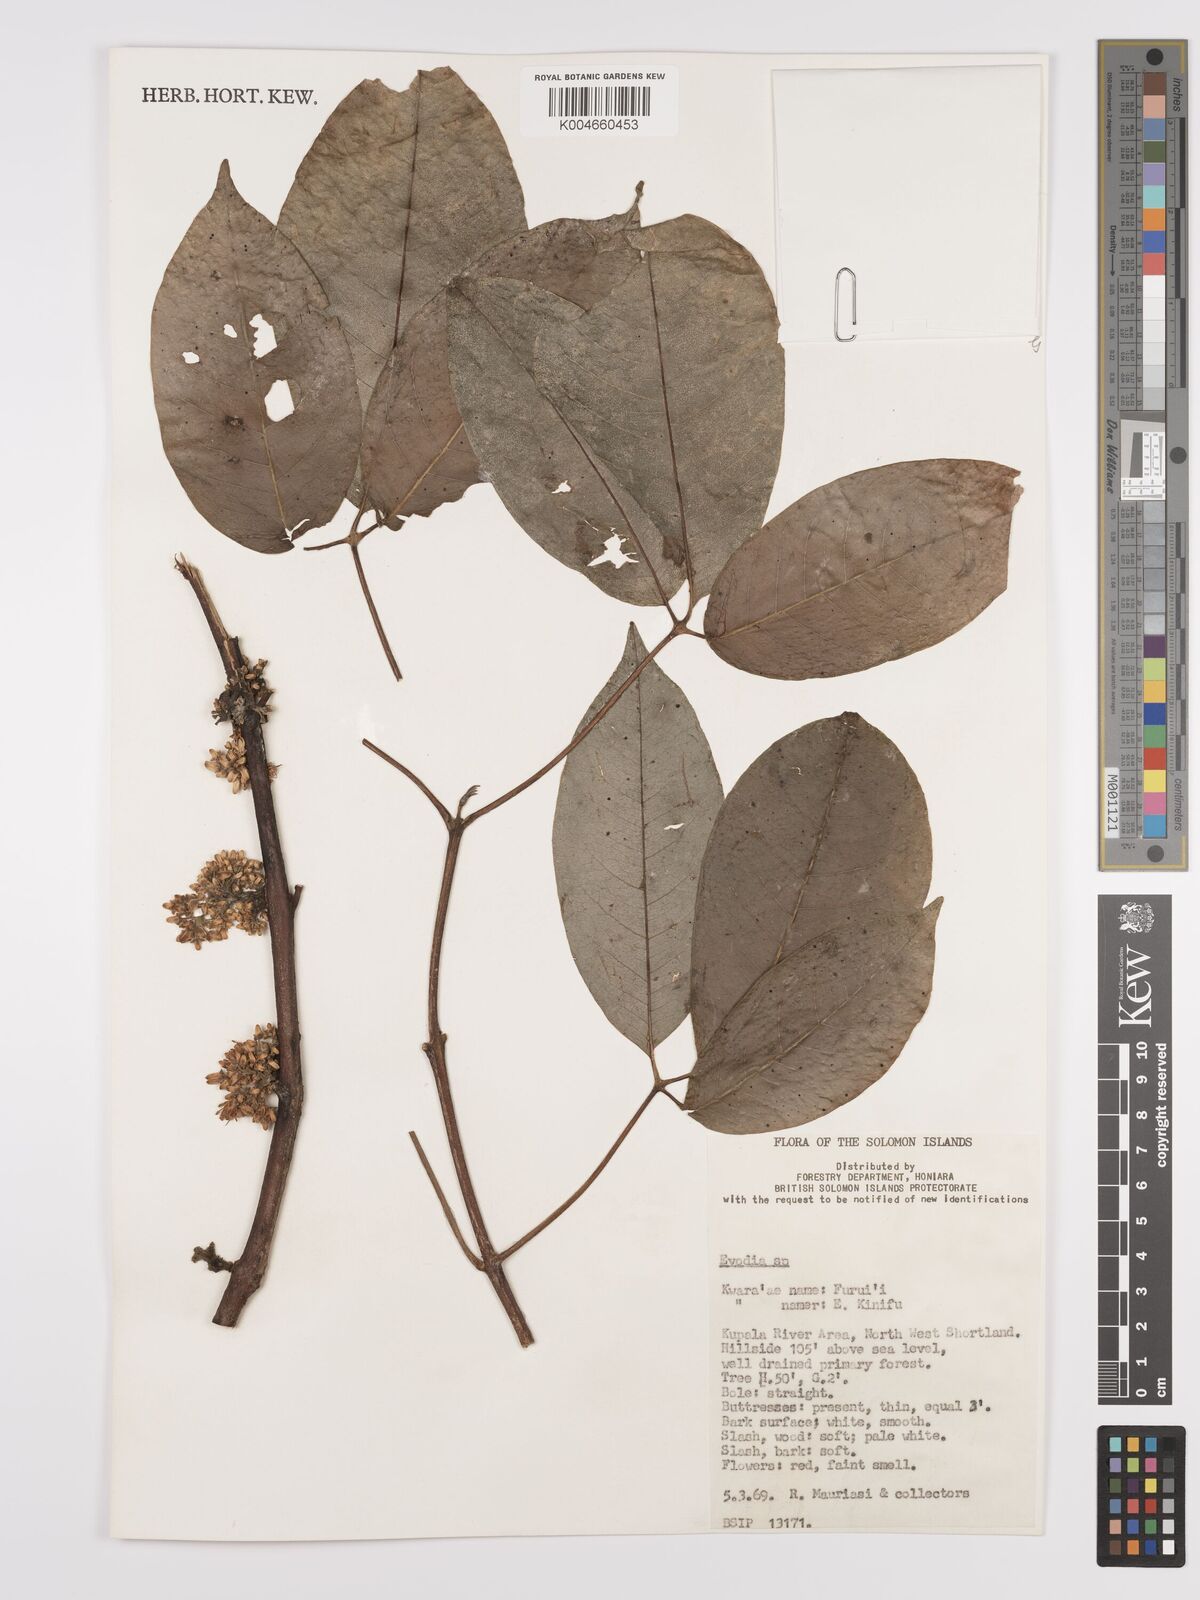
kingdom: Plantae
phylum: Tracheophyta
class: Magnoliopsida
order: Sapindales
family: Rutaceae
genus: Euodia
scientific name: Euodia
